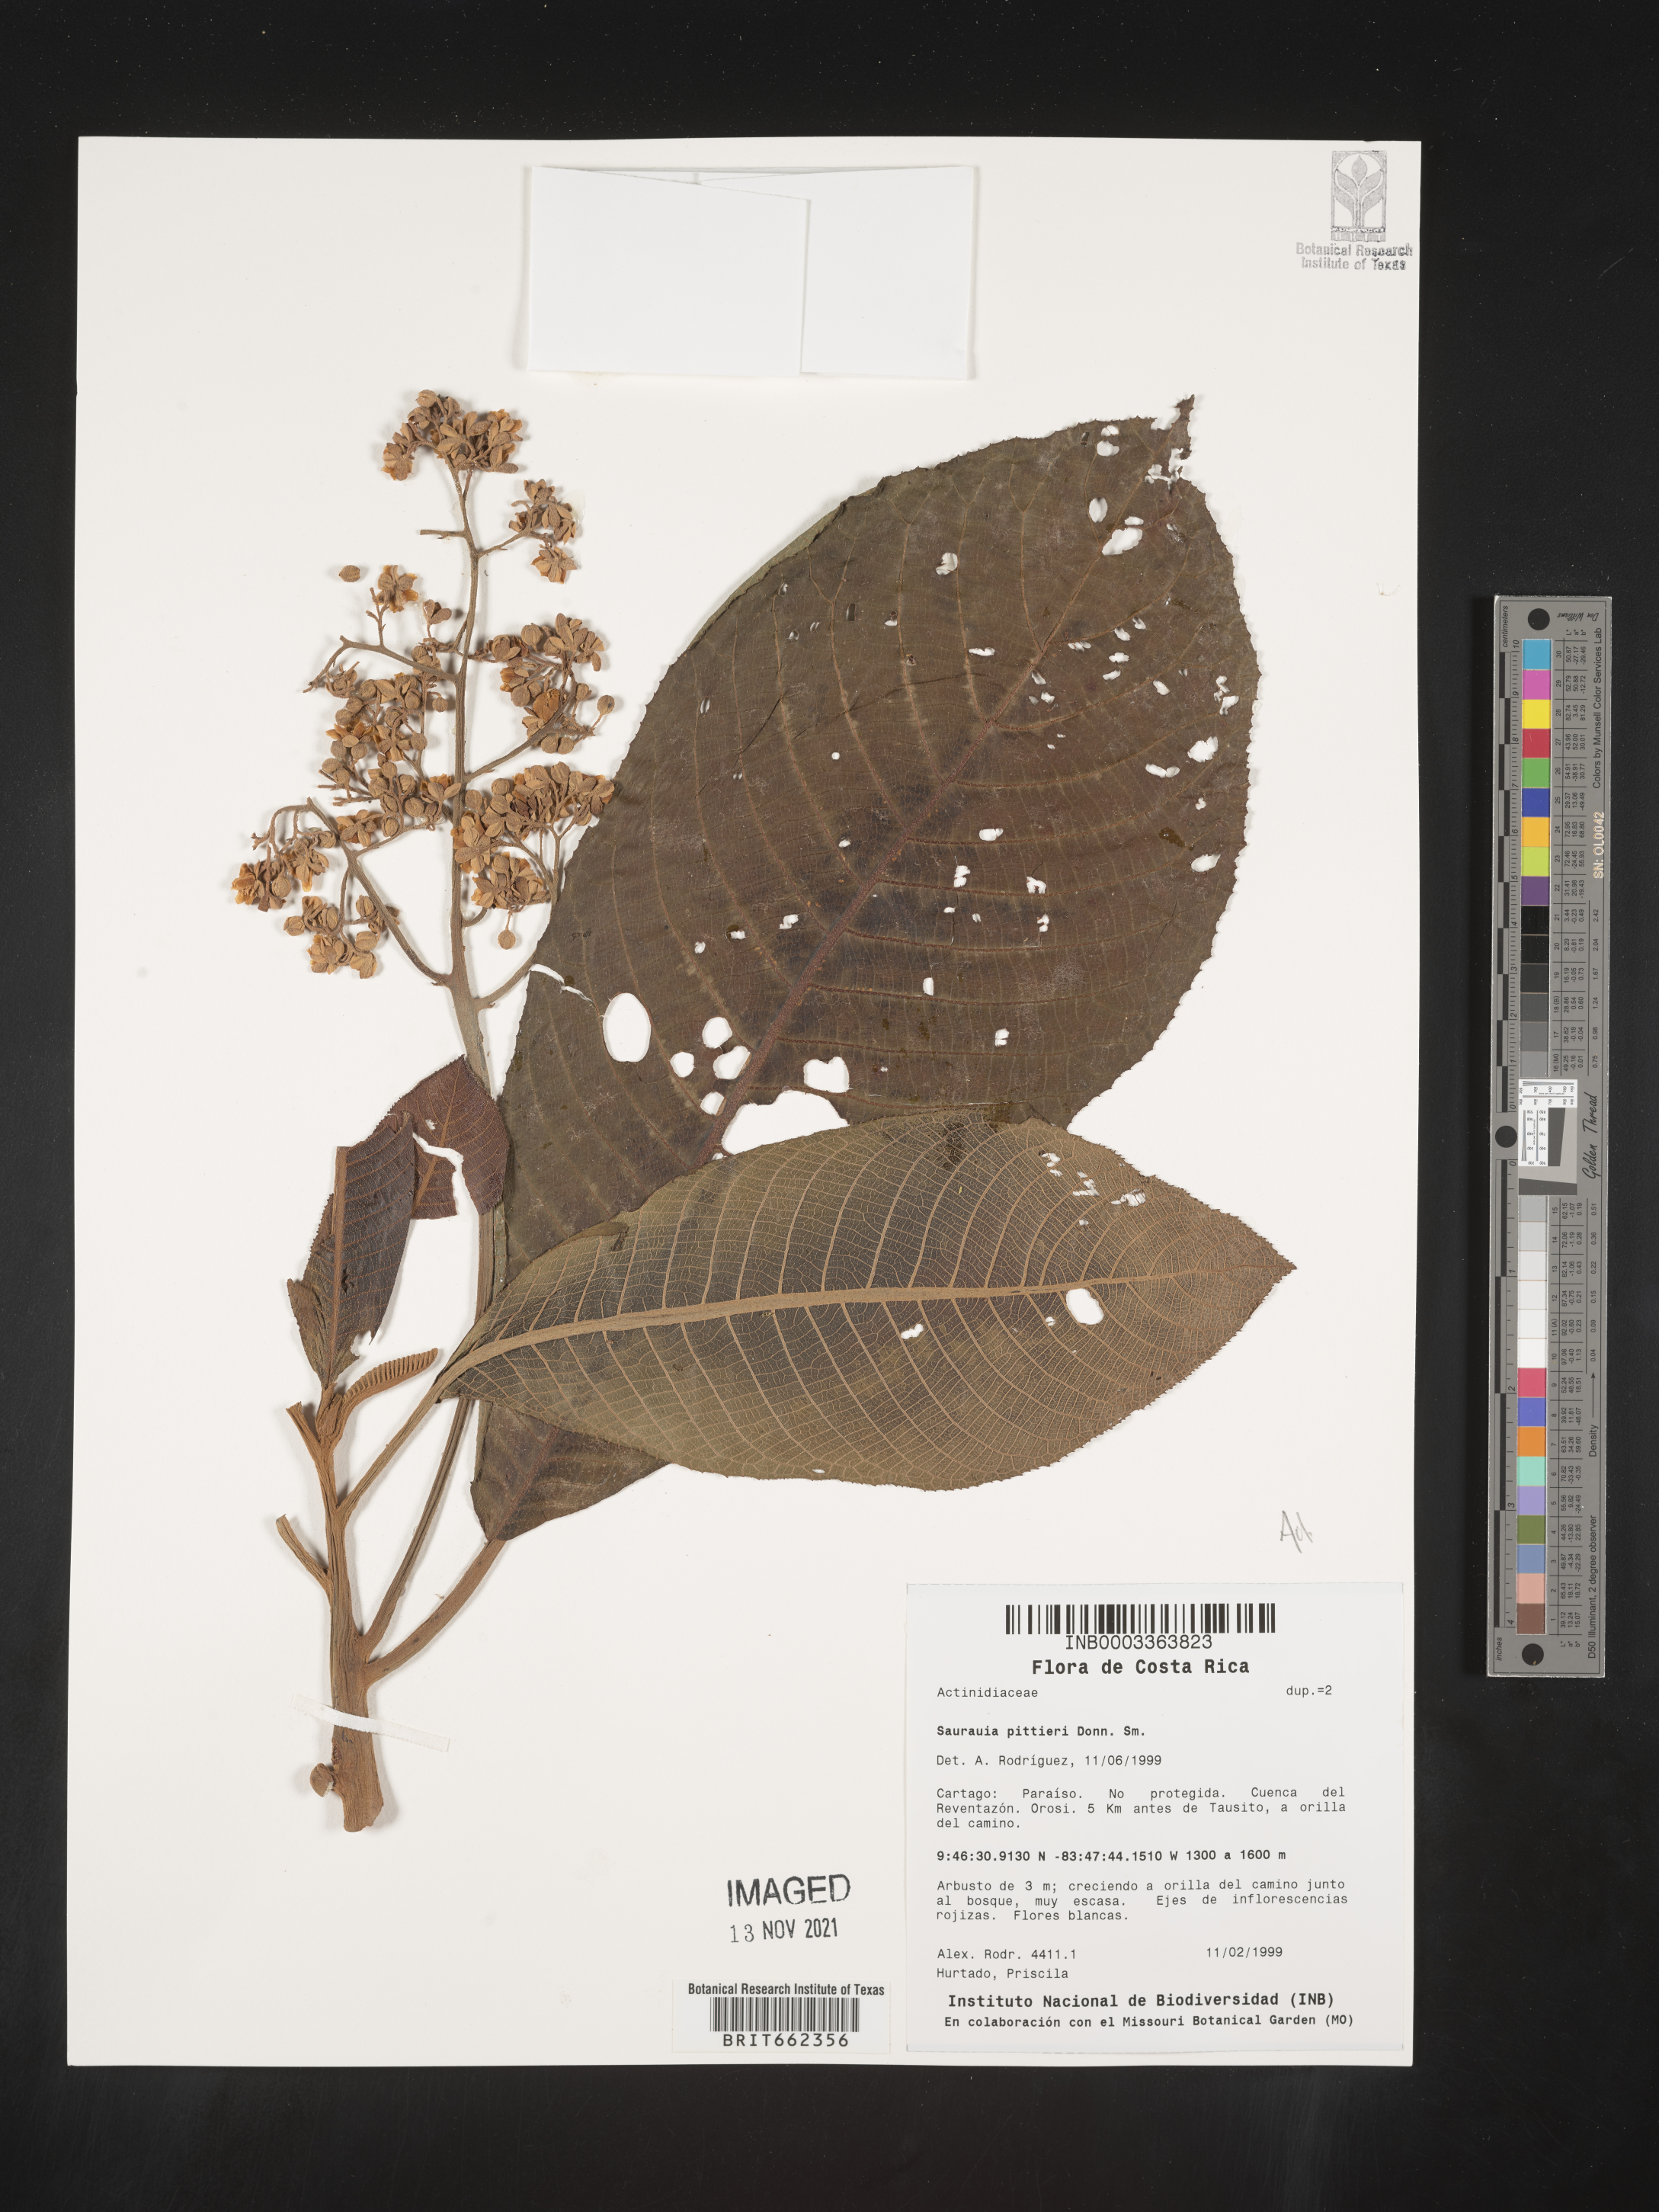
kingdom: Plantae
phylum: Tracheophyta
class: Magnoliopsida
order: Ericales
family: Actinidiaceae
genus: Saurauia
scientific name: Saurauia
